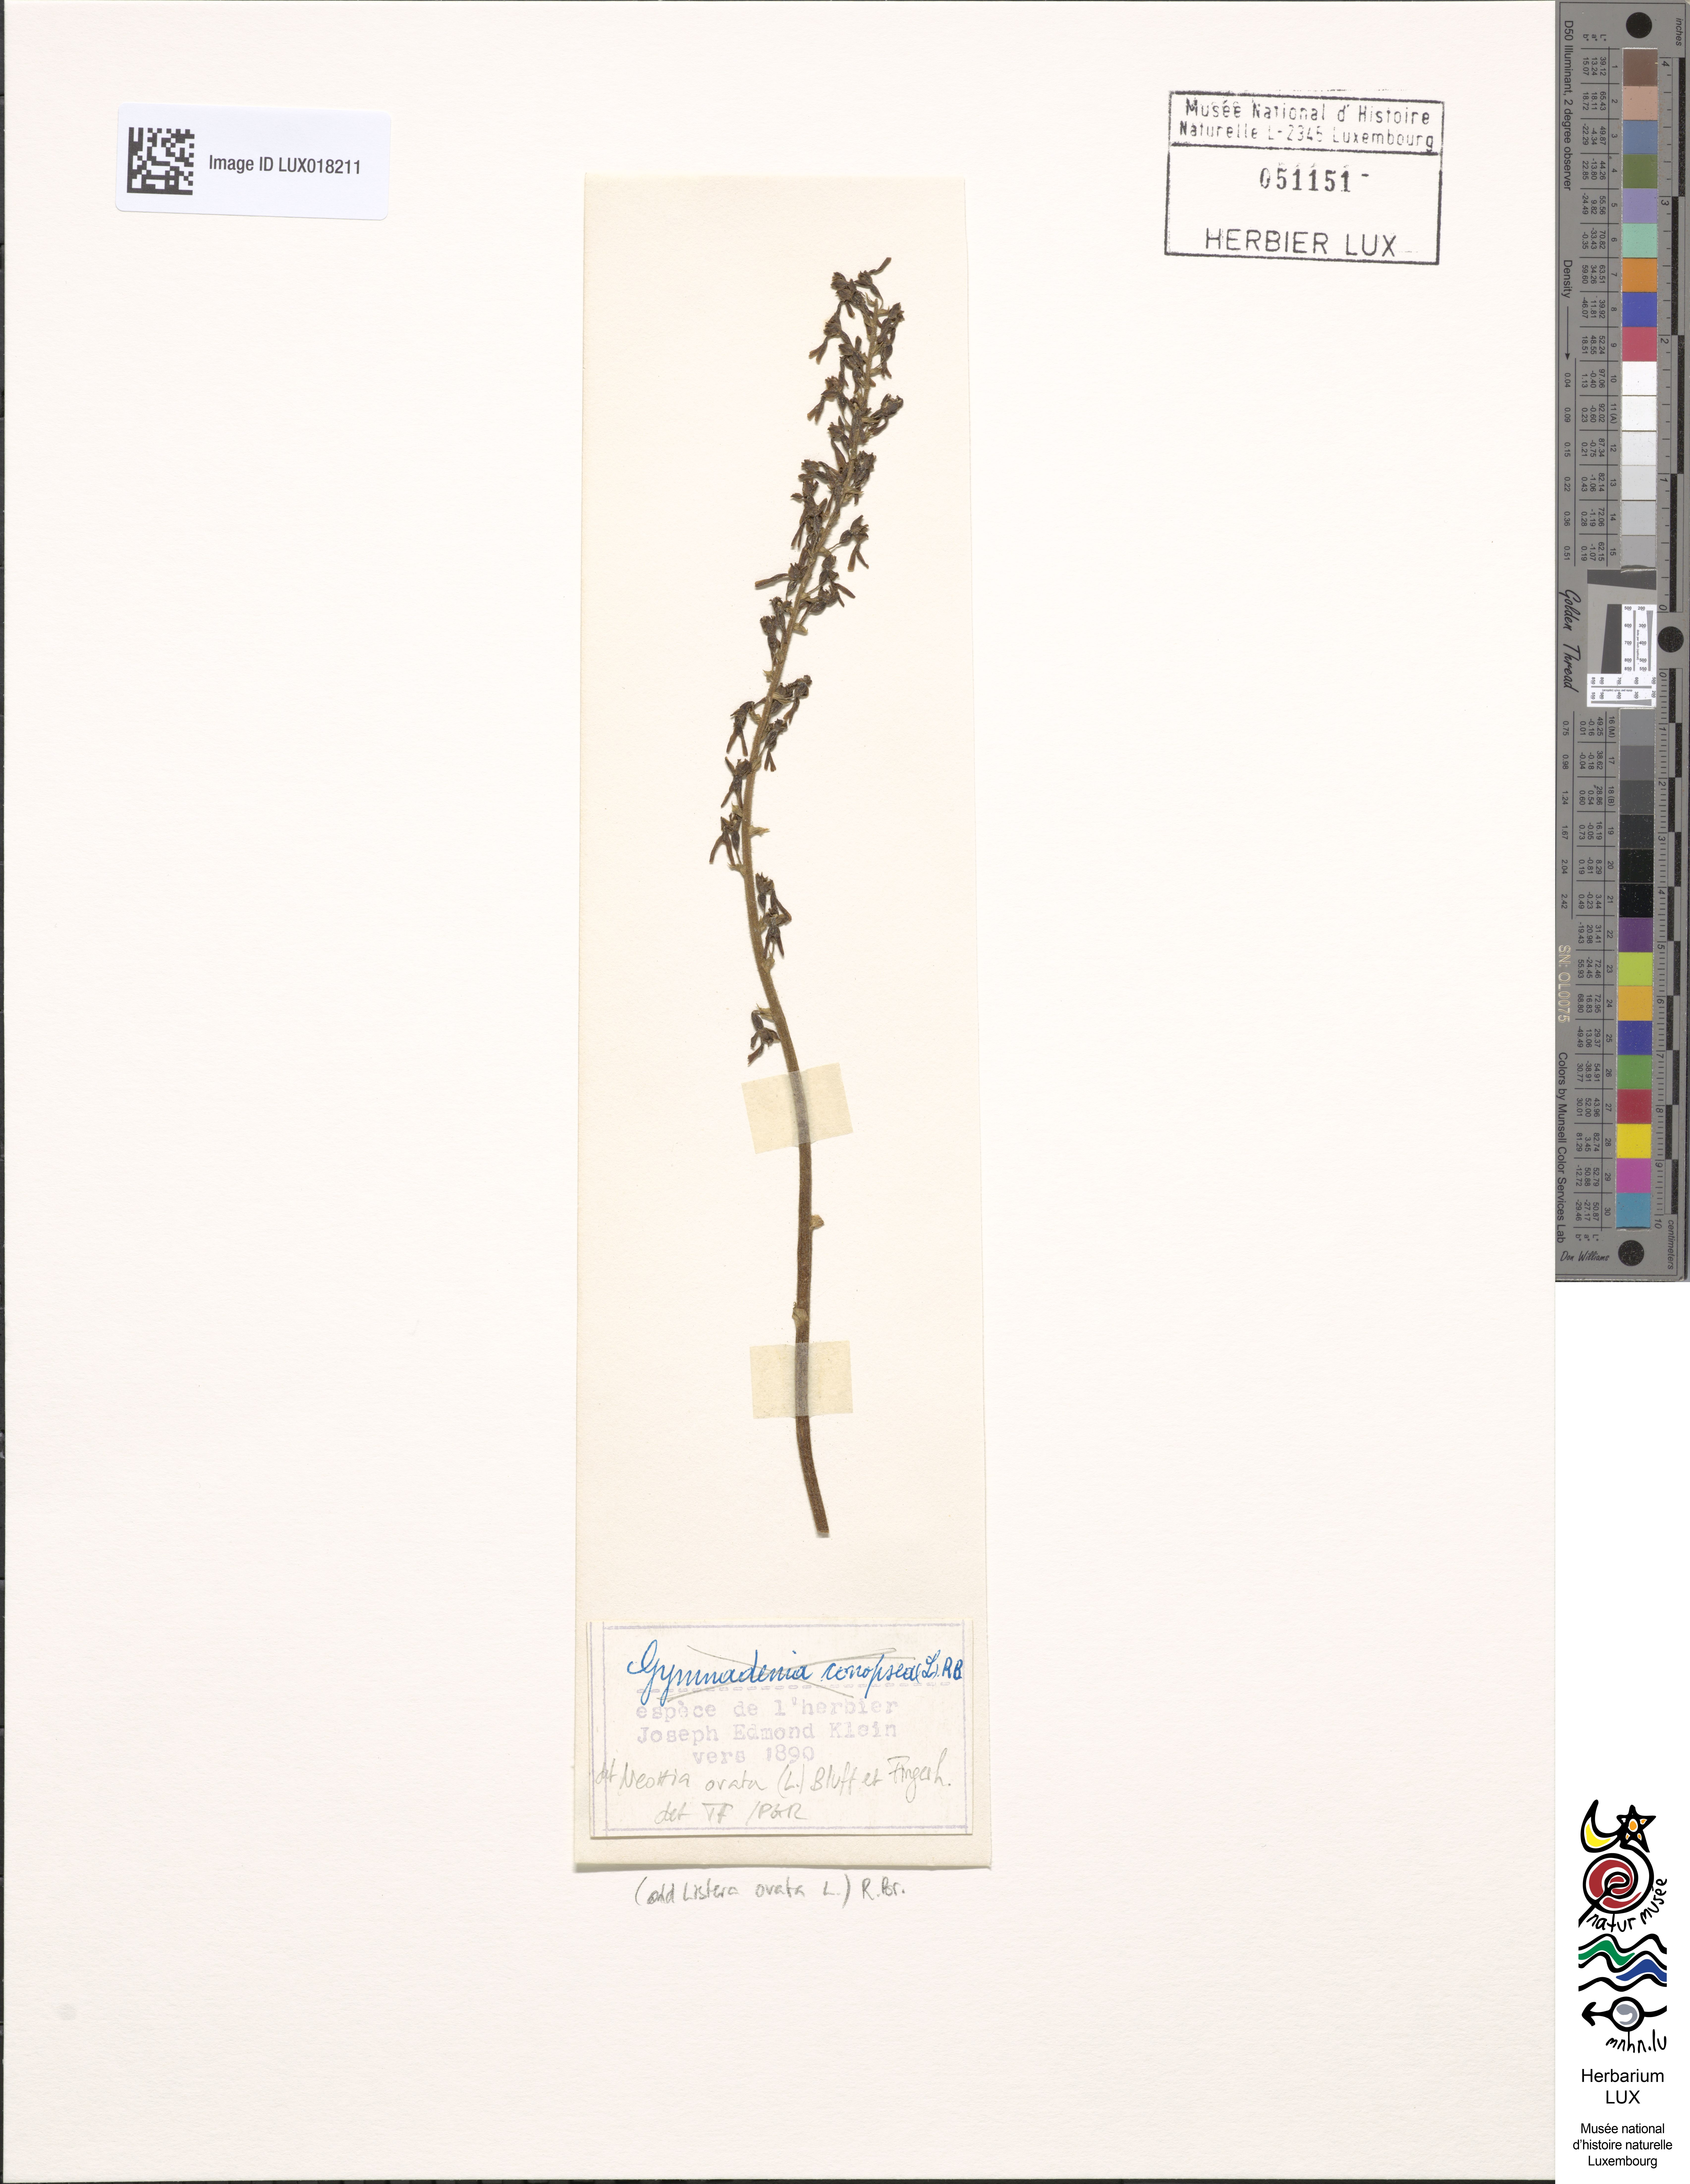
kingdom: Plantae
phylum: Tracheophyta
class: Liliopsida
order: Asparagales
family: Orchidaceae
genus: Neottia
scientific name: Neottia ovata
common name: Common twayblade
